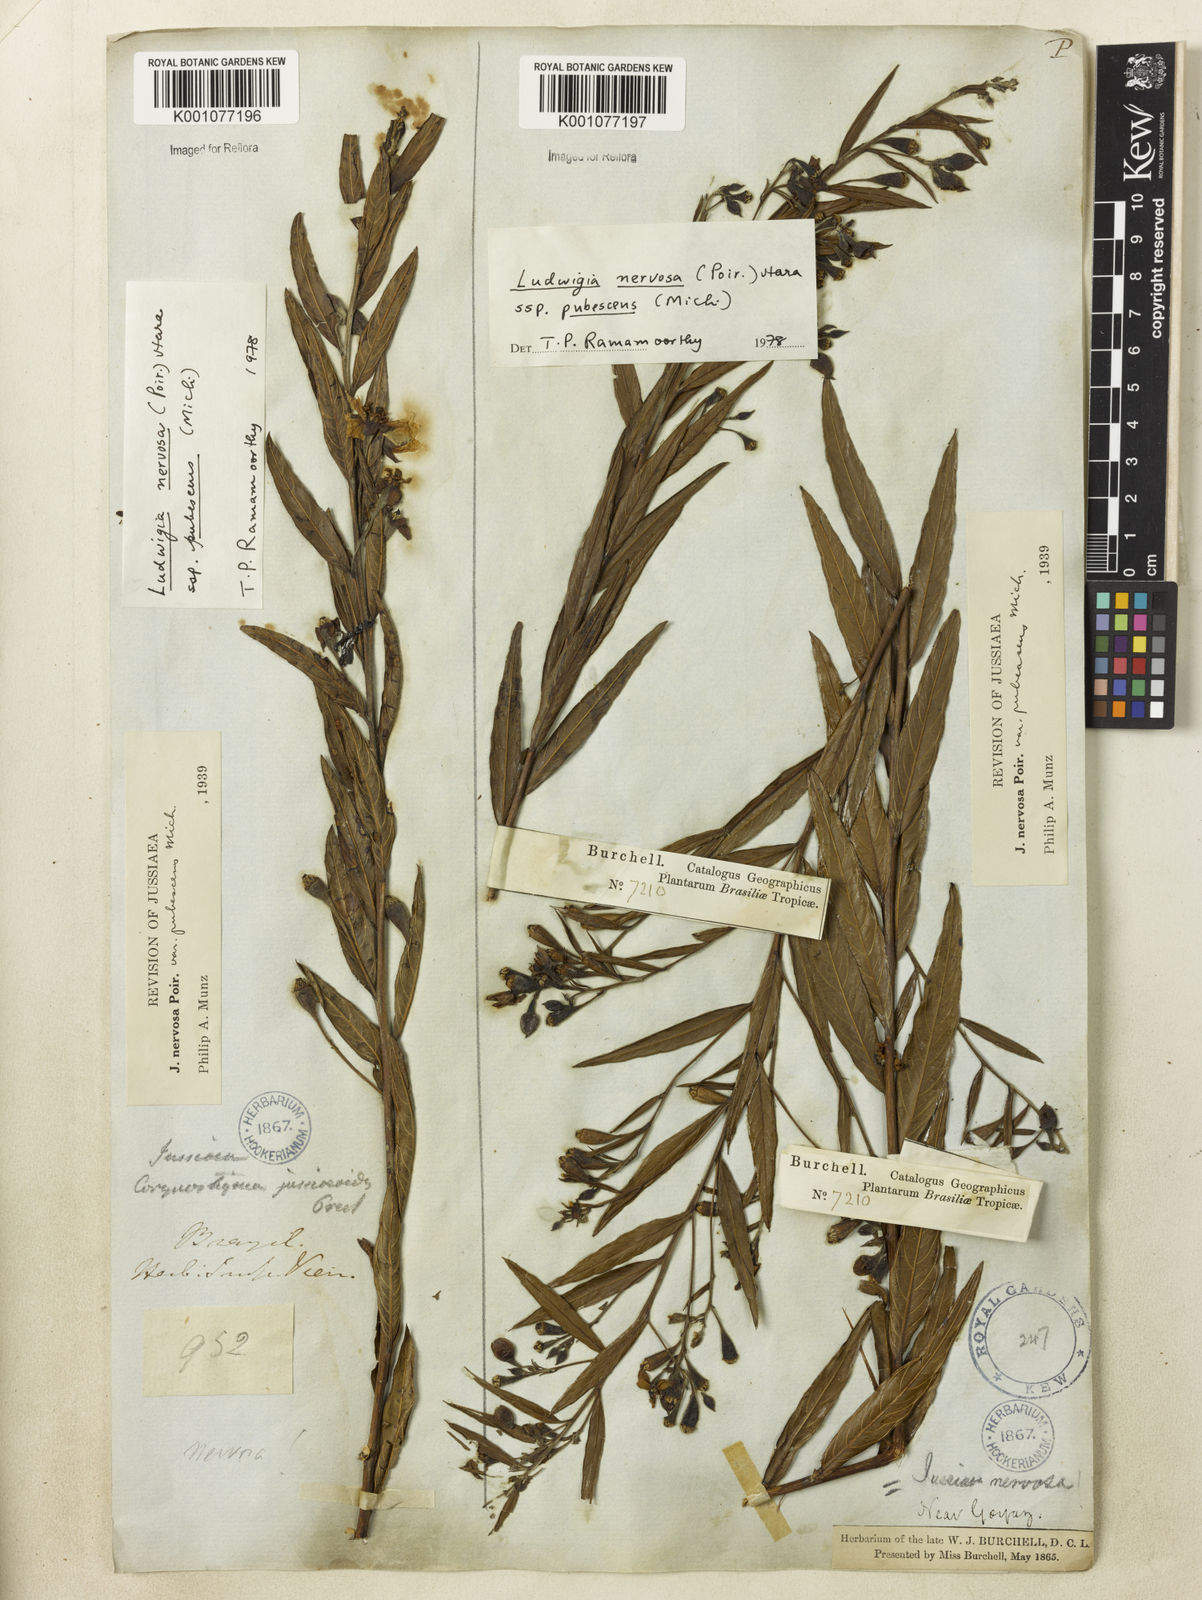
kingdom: Plantae
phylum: Tracheophyta
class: Magnoliopsida
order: Myrtales
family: Onagraceae
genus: Ludwigia
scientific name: Ludwigia nervosa
